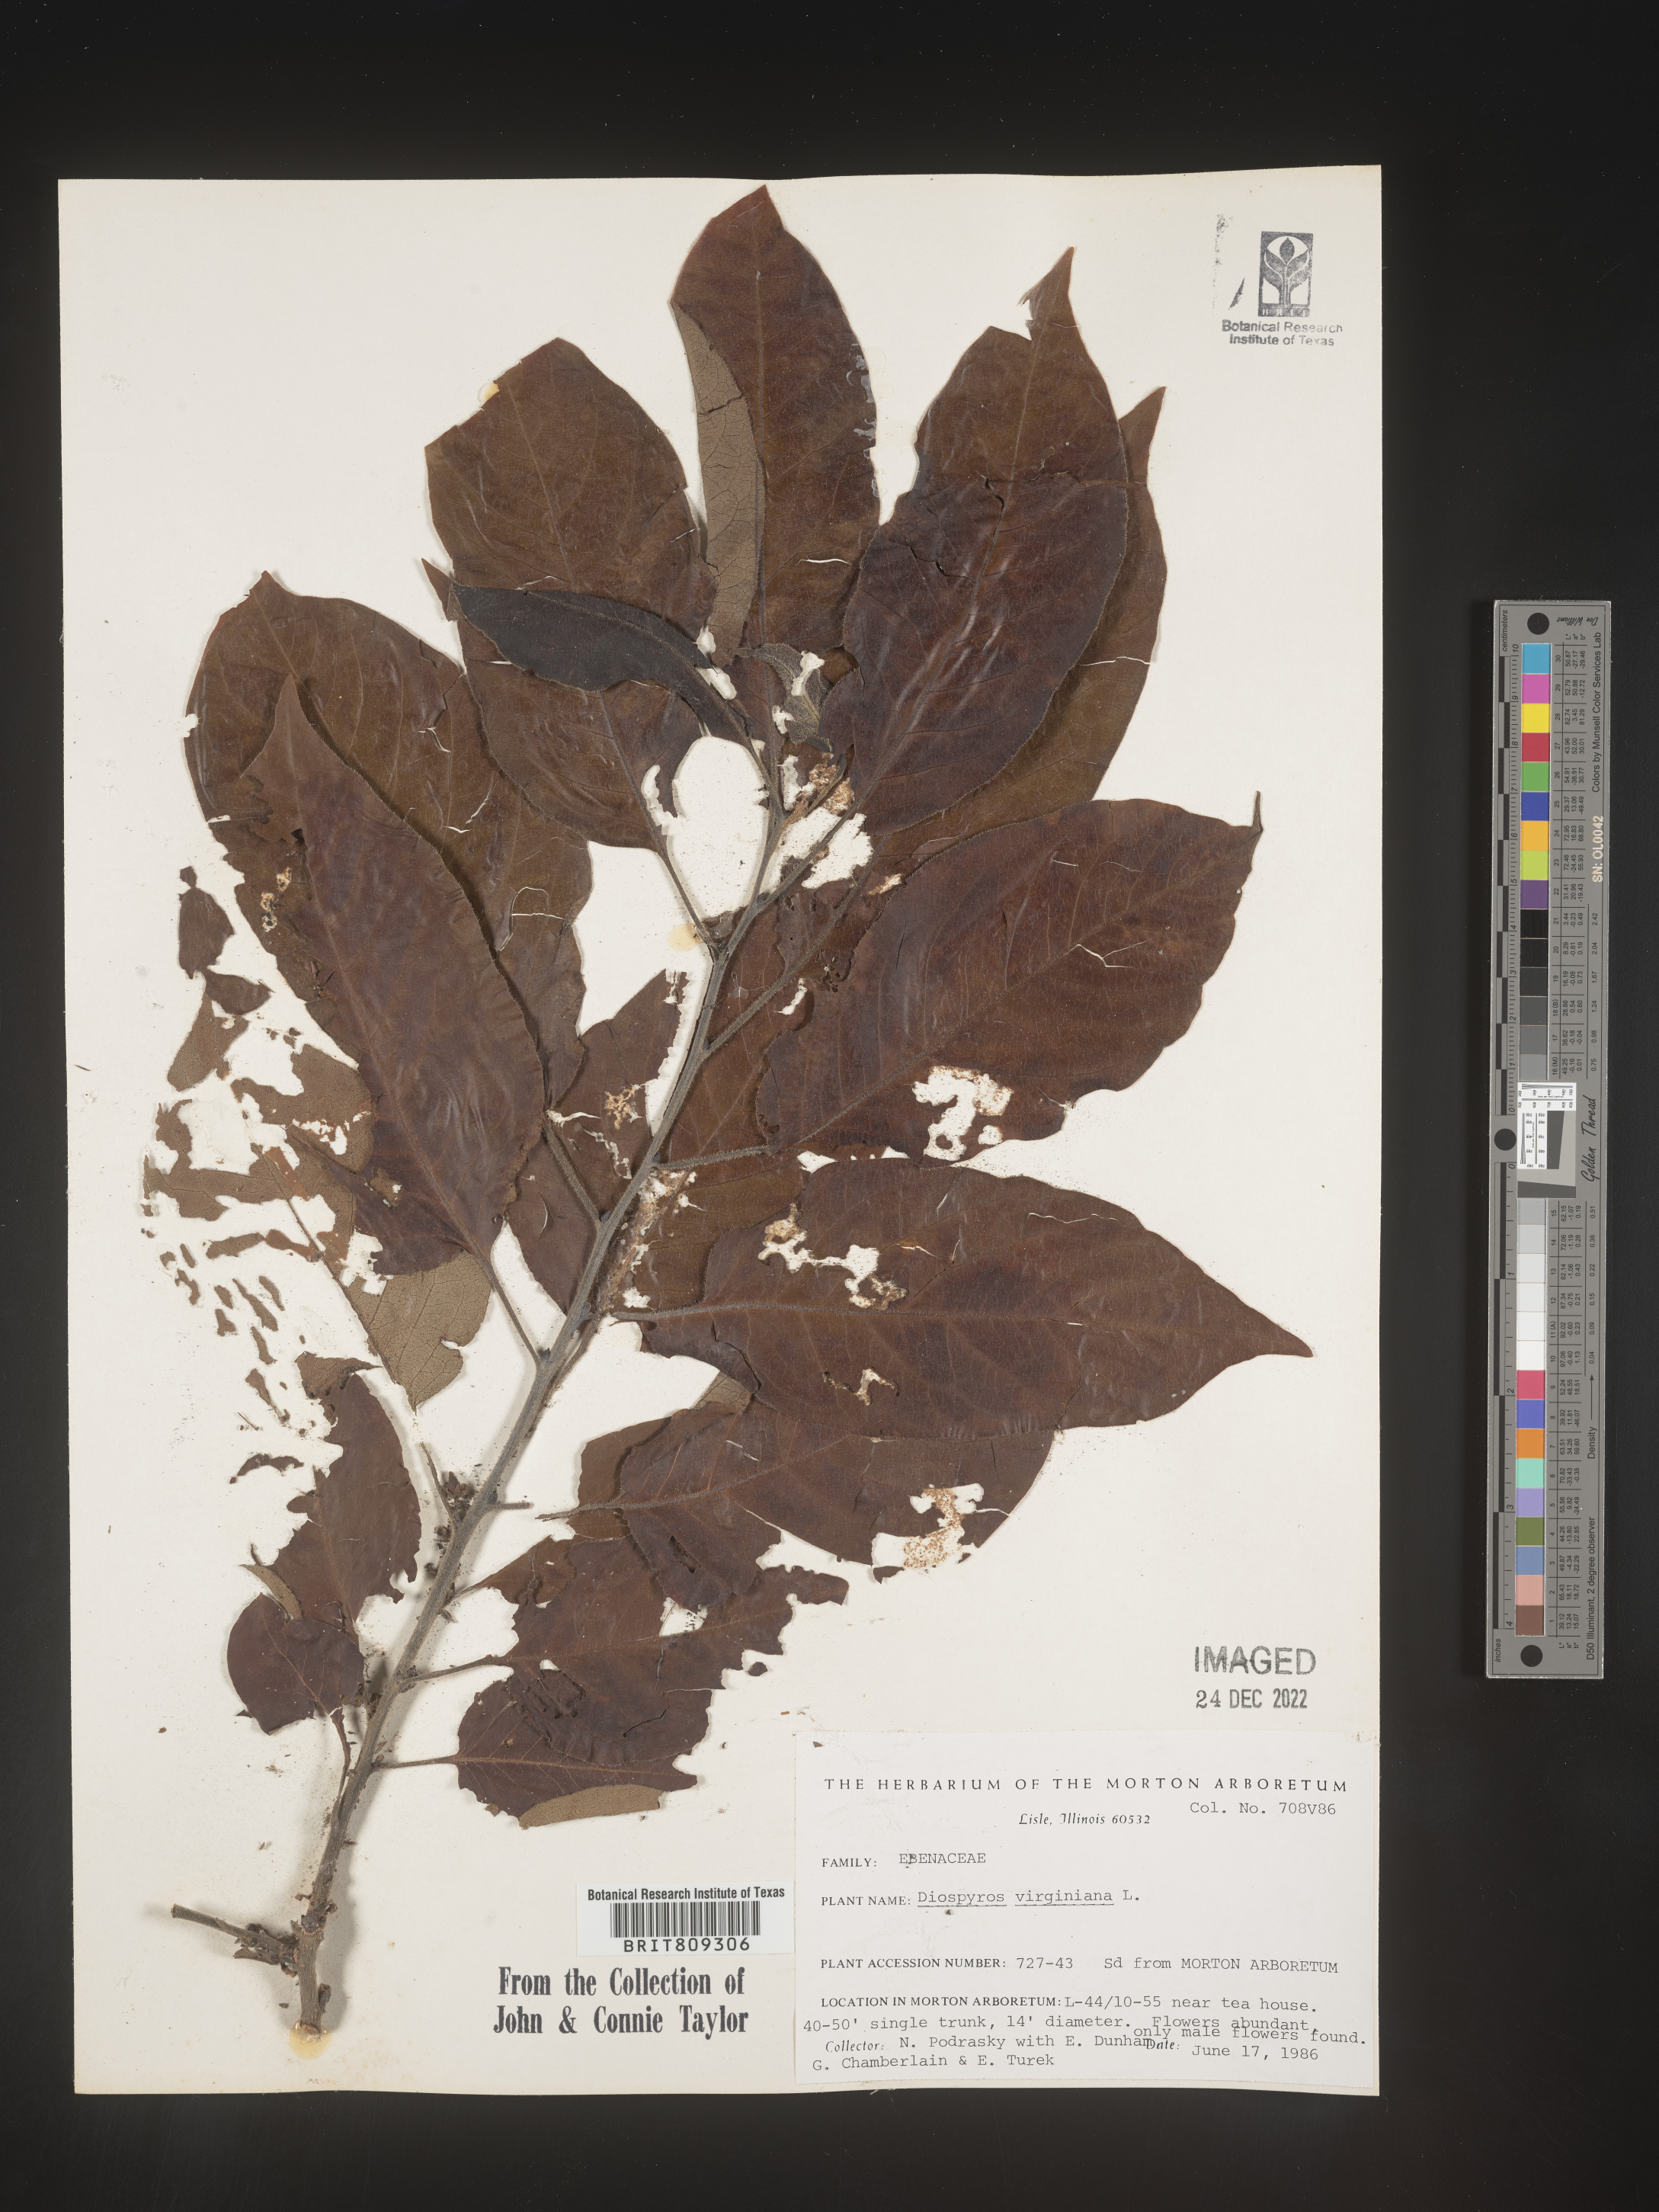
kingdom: Plantae
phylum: Tracheophyta
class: Magnoliopsida
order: Ericales
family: Ebenaceae
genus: Diospyros
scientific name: Diospyros virginiana
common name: Persimmon
